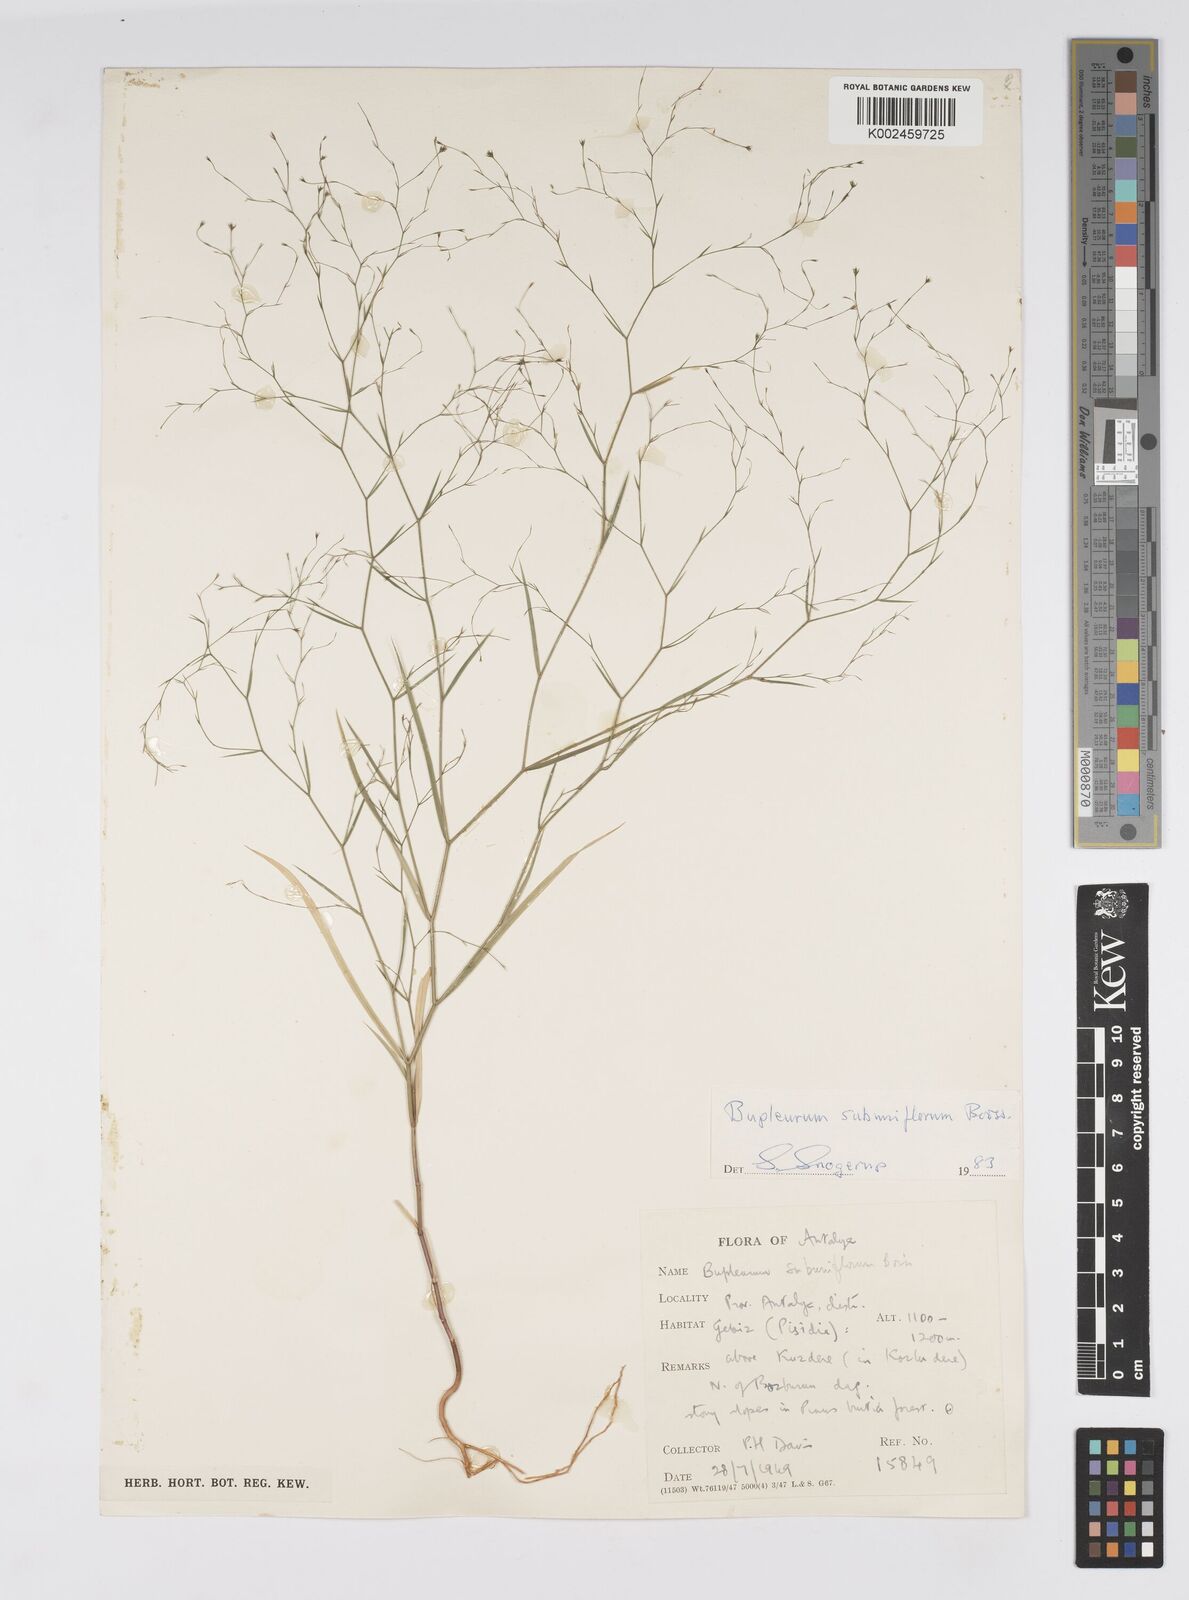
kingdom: Plantae
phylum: Tracheophyta
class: Magnoliopsida
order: Apiales
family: Apiaceae
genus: Bupleurum
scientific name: Bupleurum subuniflorum
